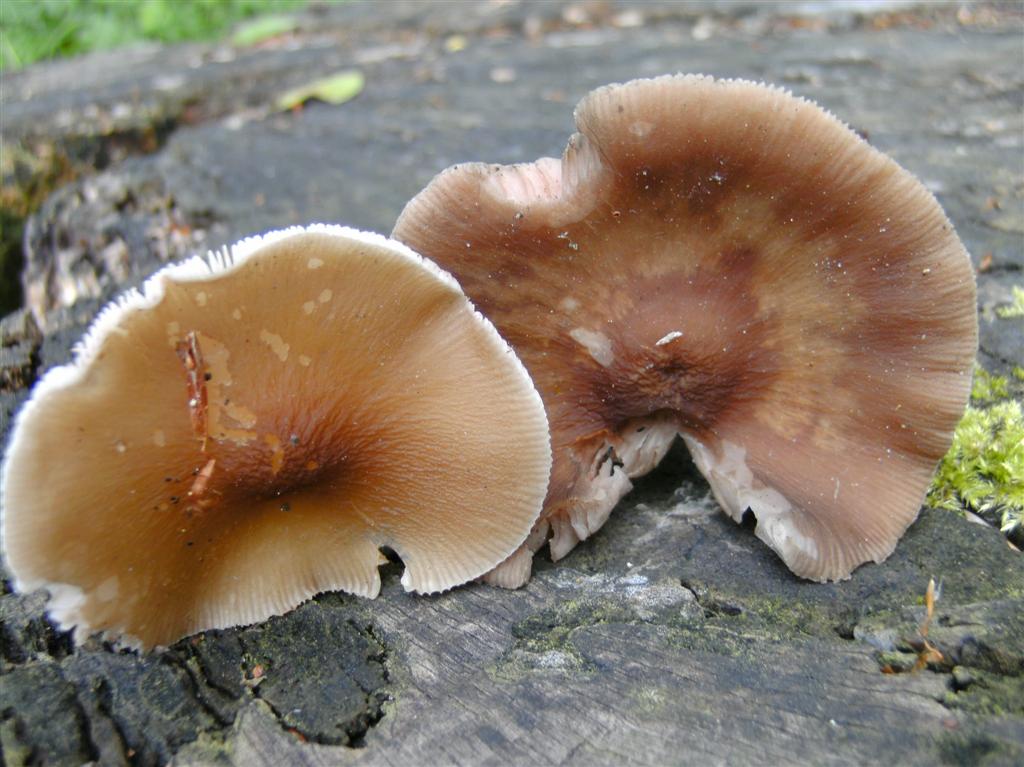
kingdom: Fungi
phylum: Basidiomycota
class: Agaricomycetes
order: Agaricales
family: Pluteaceae
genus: Pluteus
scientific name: Pluteus phlebophorus
